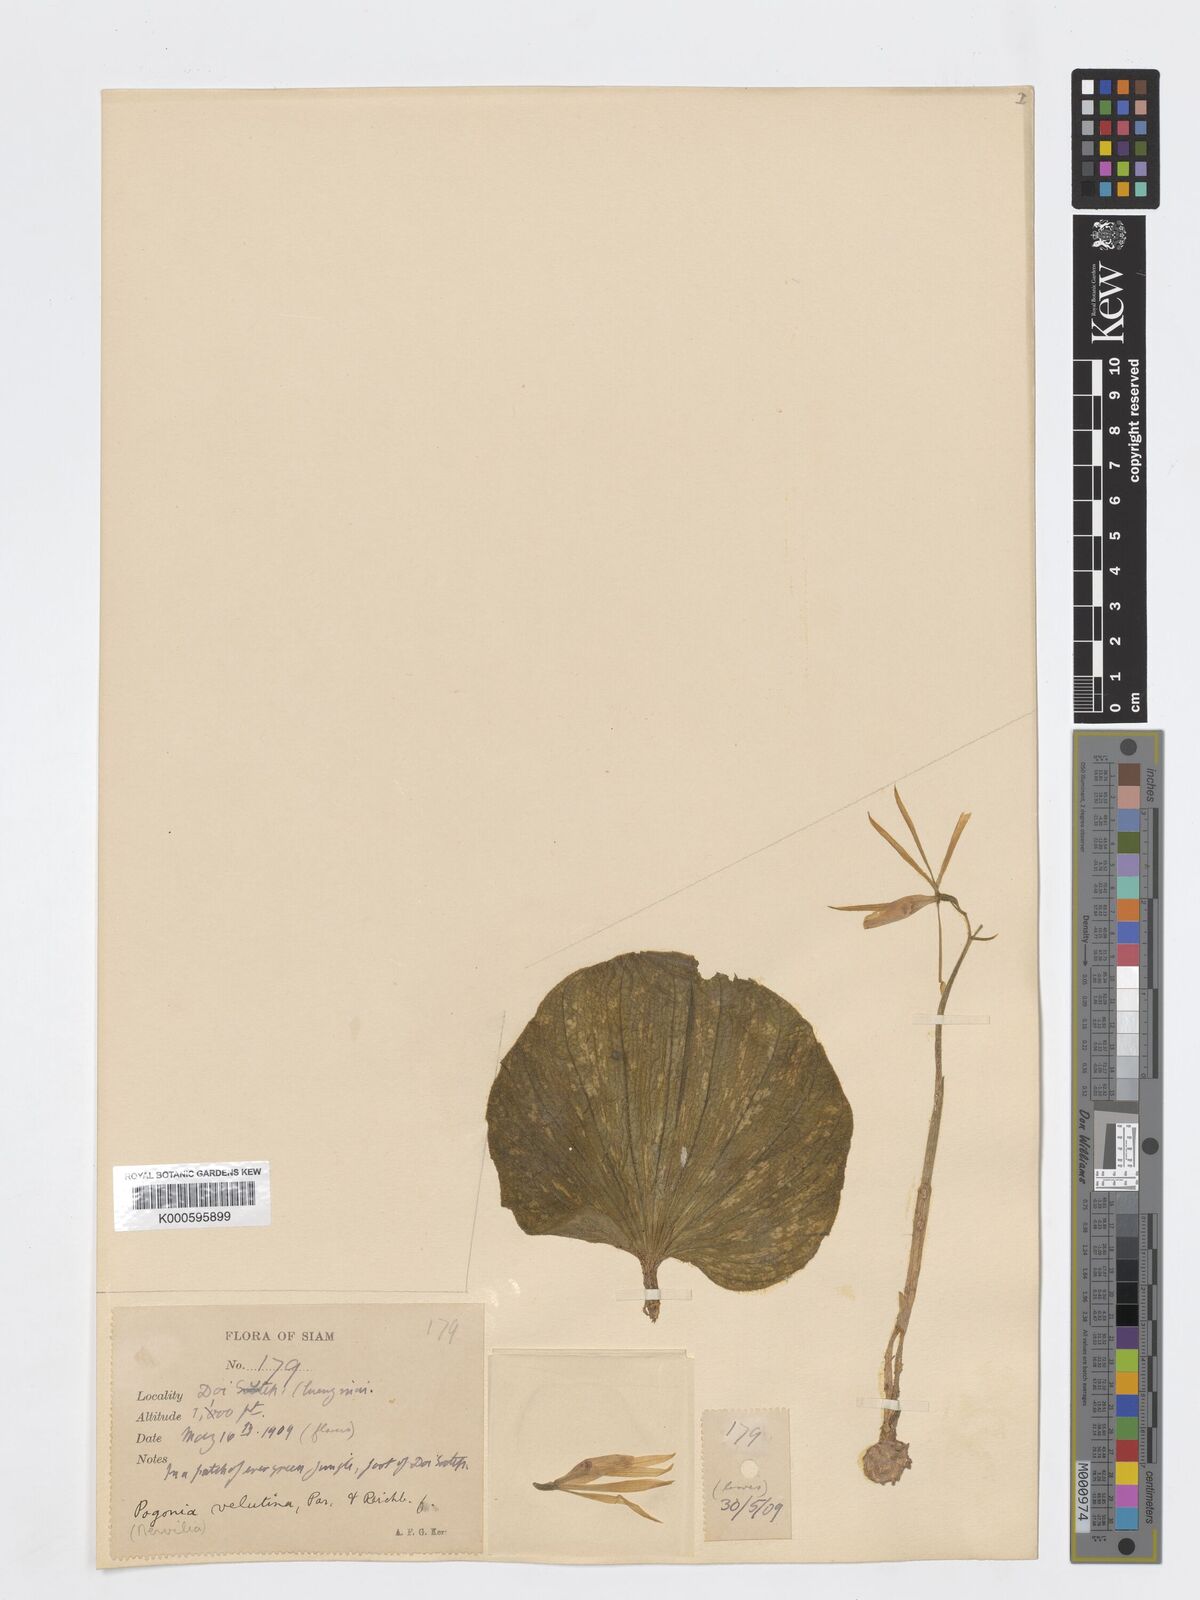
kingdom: Plantae
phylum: Tracheophyta
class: Liliopsida
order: Asparagales
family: Orchidaceae
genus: Nervilia
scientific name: Nervilia plicata
